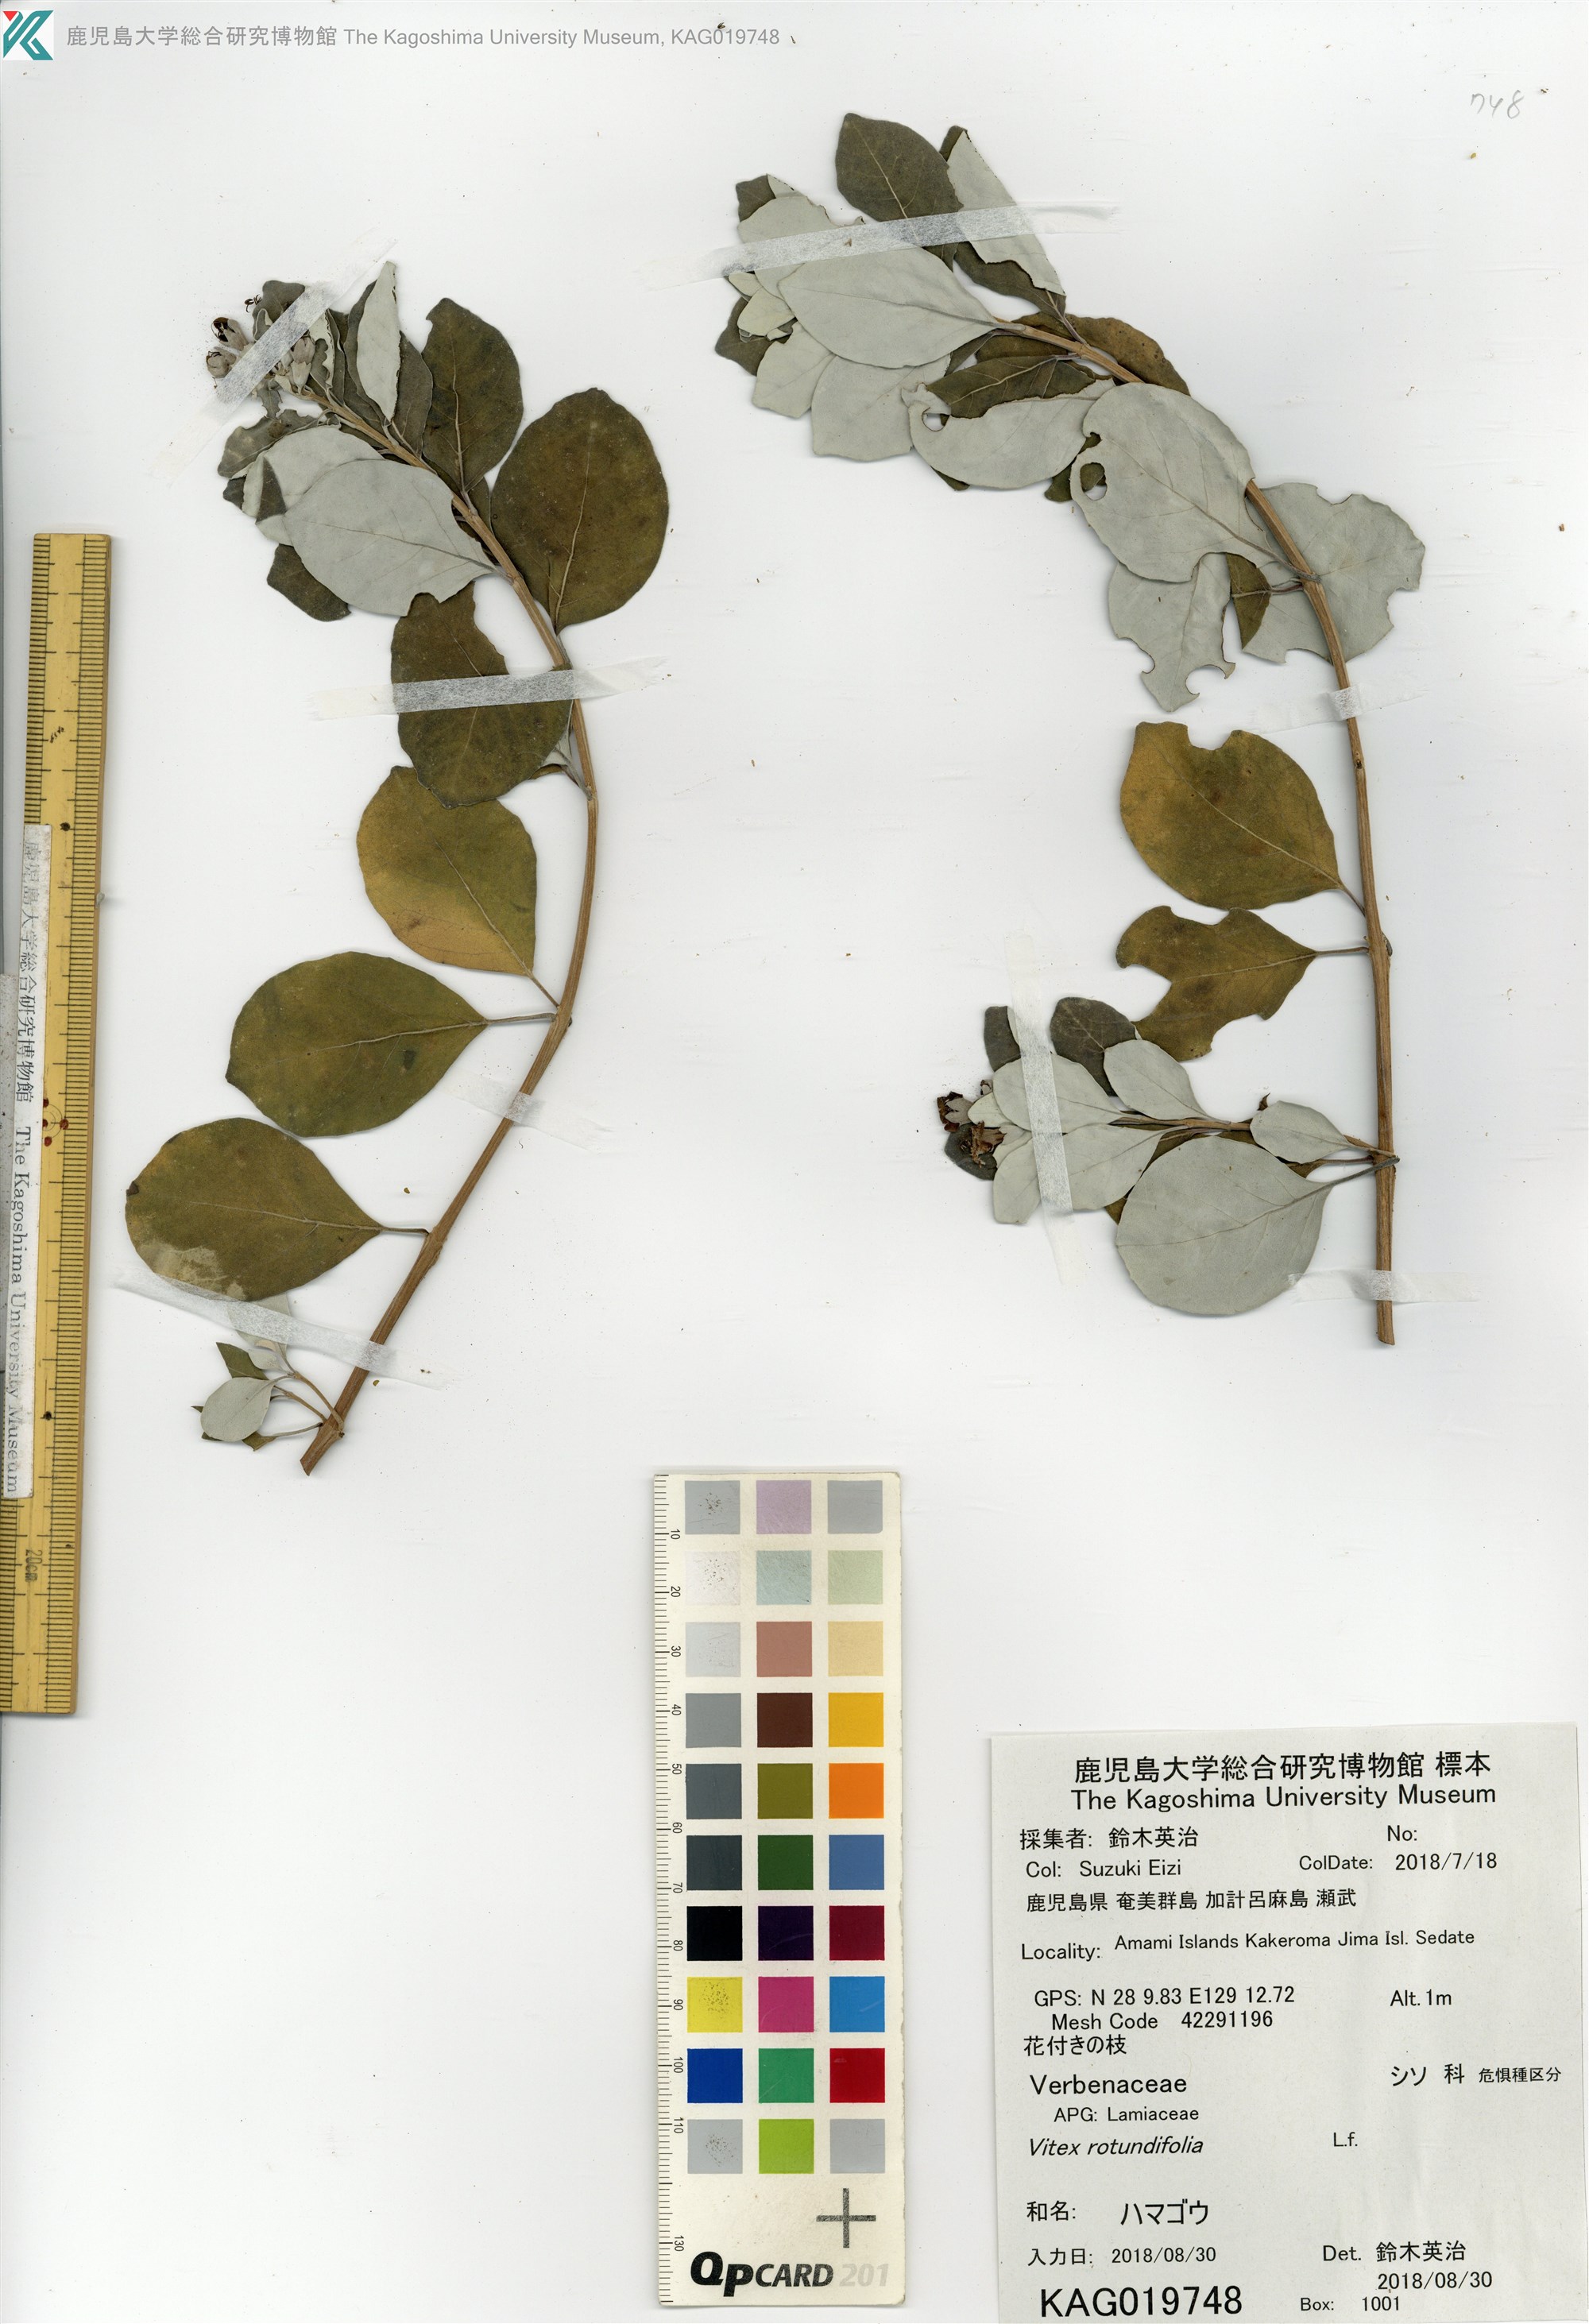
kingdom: Plantae
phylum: Tracheophyta
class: Magnoliopsida
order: Lamiales
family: Lamiaceae
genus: Vitex
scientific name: Vitex rotundifolia
